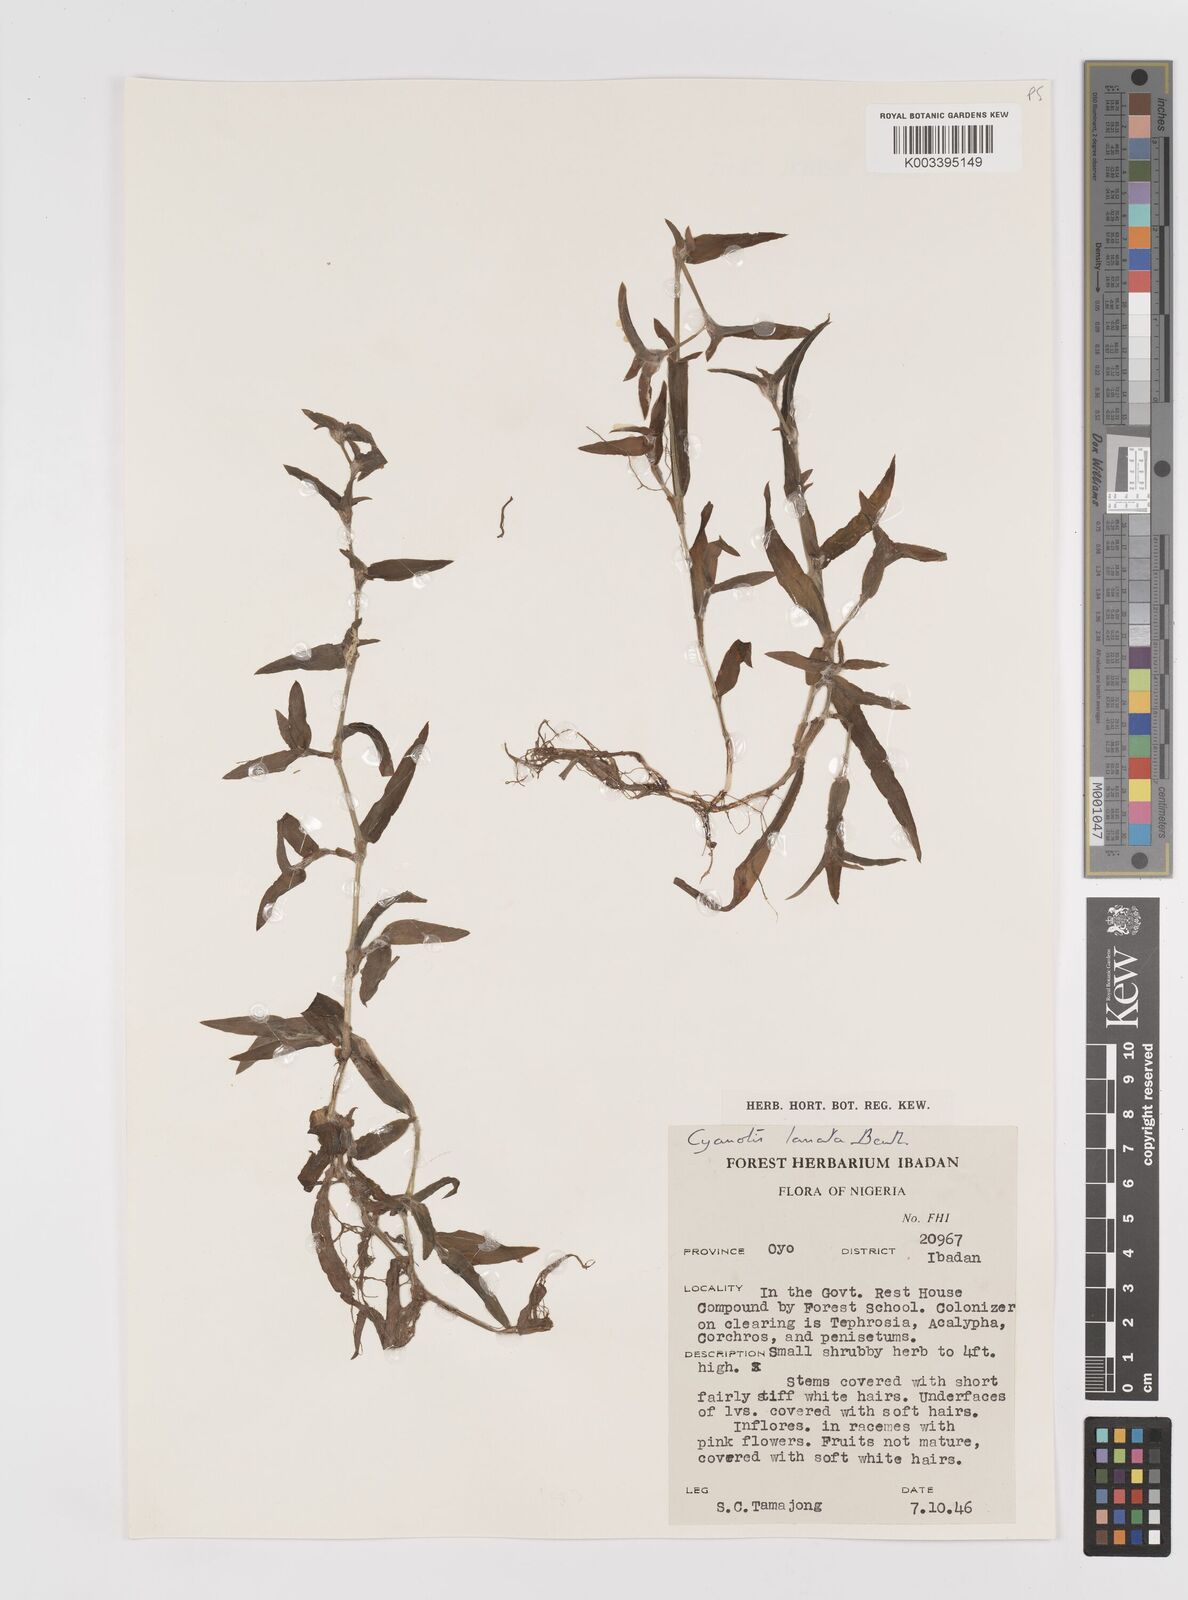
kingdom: Plantae
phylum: Tracheophyta
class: Liliopsida
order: Commelinales
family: Commelinaceae
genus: Cyanotis
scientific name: Cyanotis lanata
